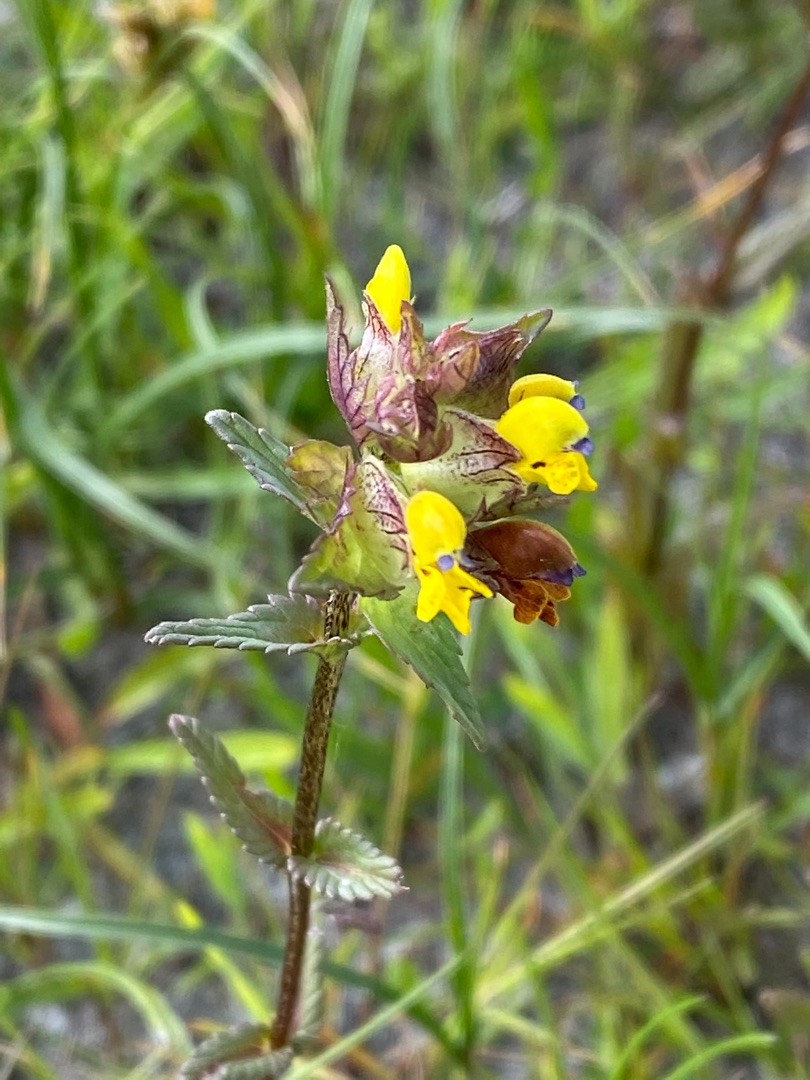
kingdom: Plantae
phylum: Tracheophyta
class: Magnoliopsida
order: Lamiales
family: Orobanchaceae
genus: Rhinanthus
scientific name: Rhinanthus minor
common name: Liden skjaller
